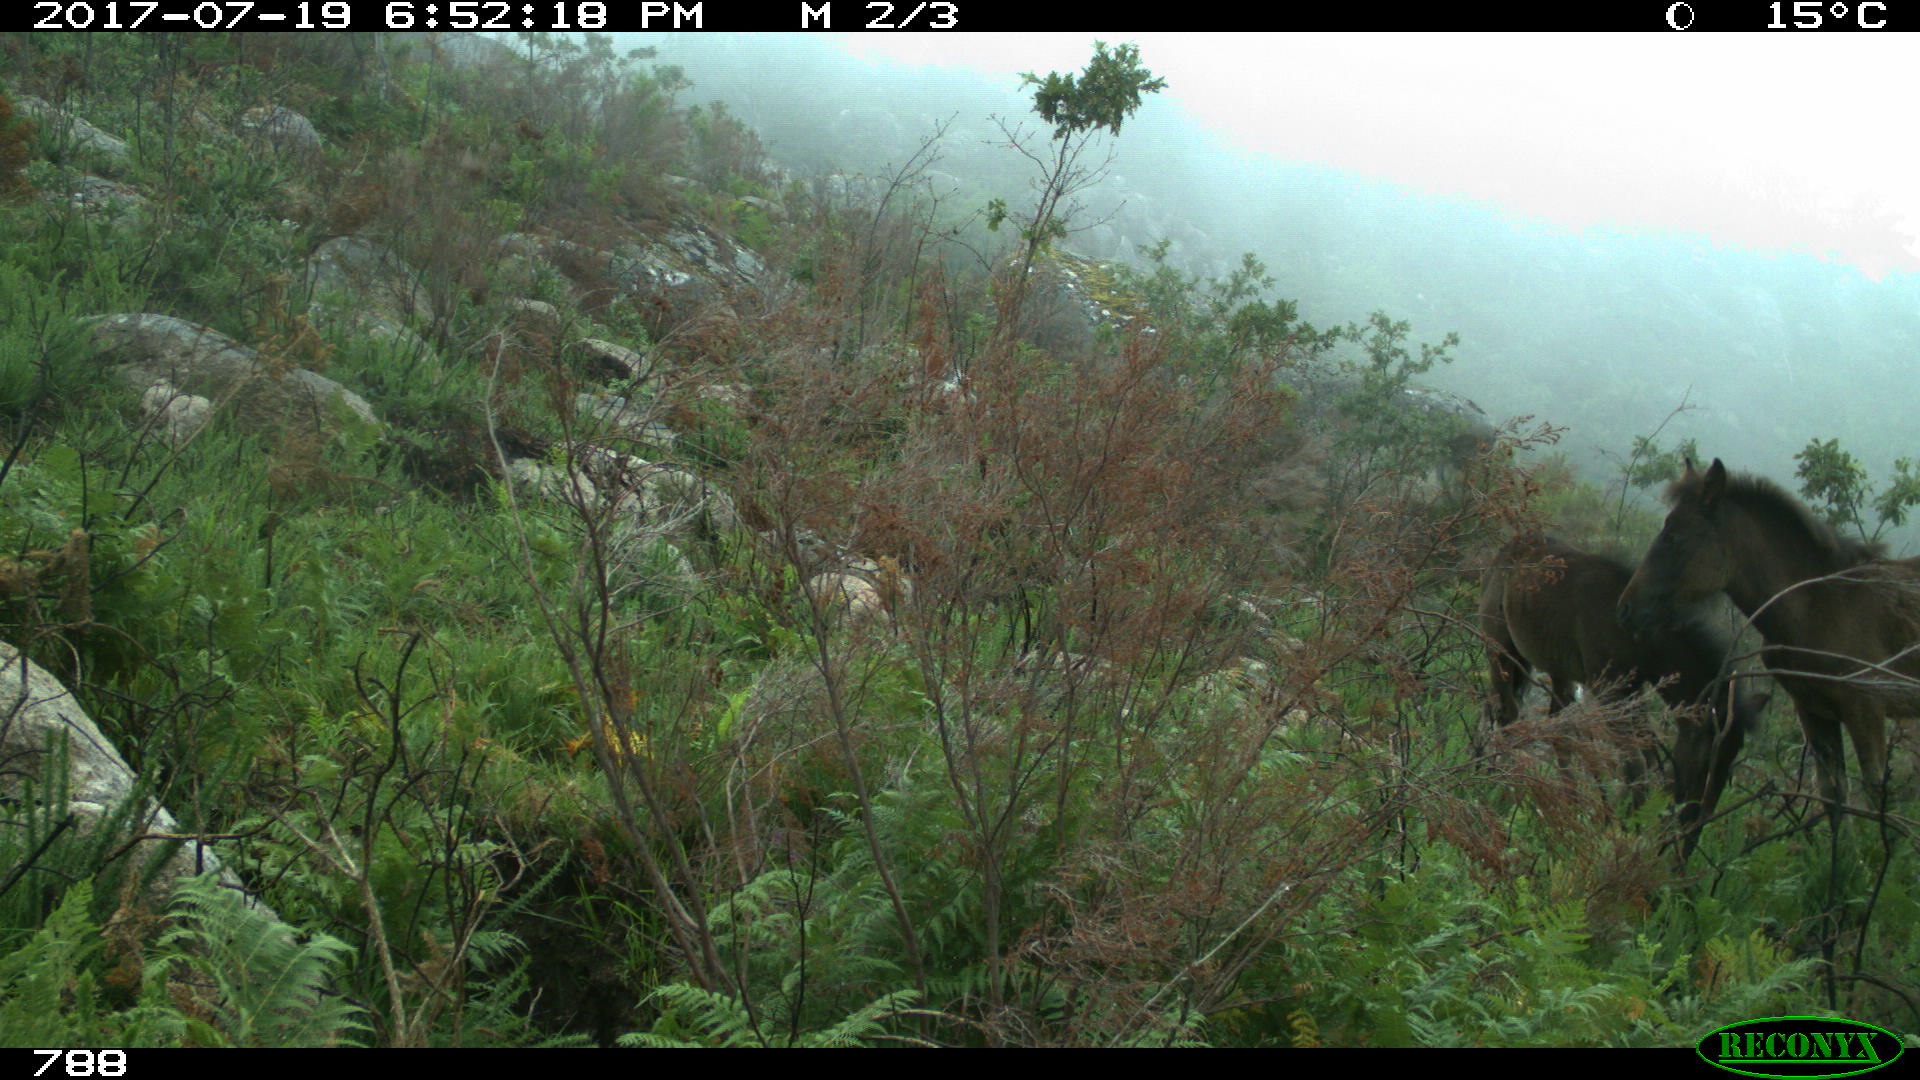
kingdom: Animalia
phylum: Chordata
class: Mammalia
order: Perissodactyla
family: Equidae
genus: Equus
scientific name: Equus caballus
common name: Horse
